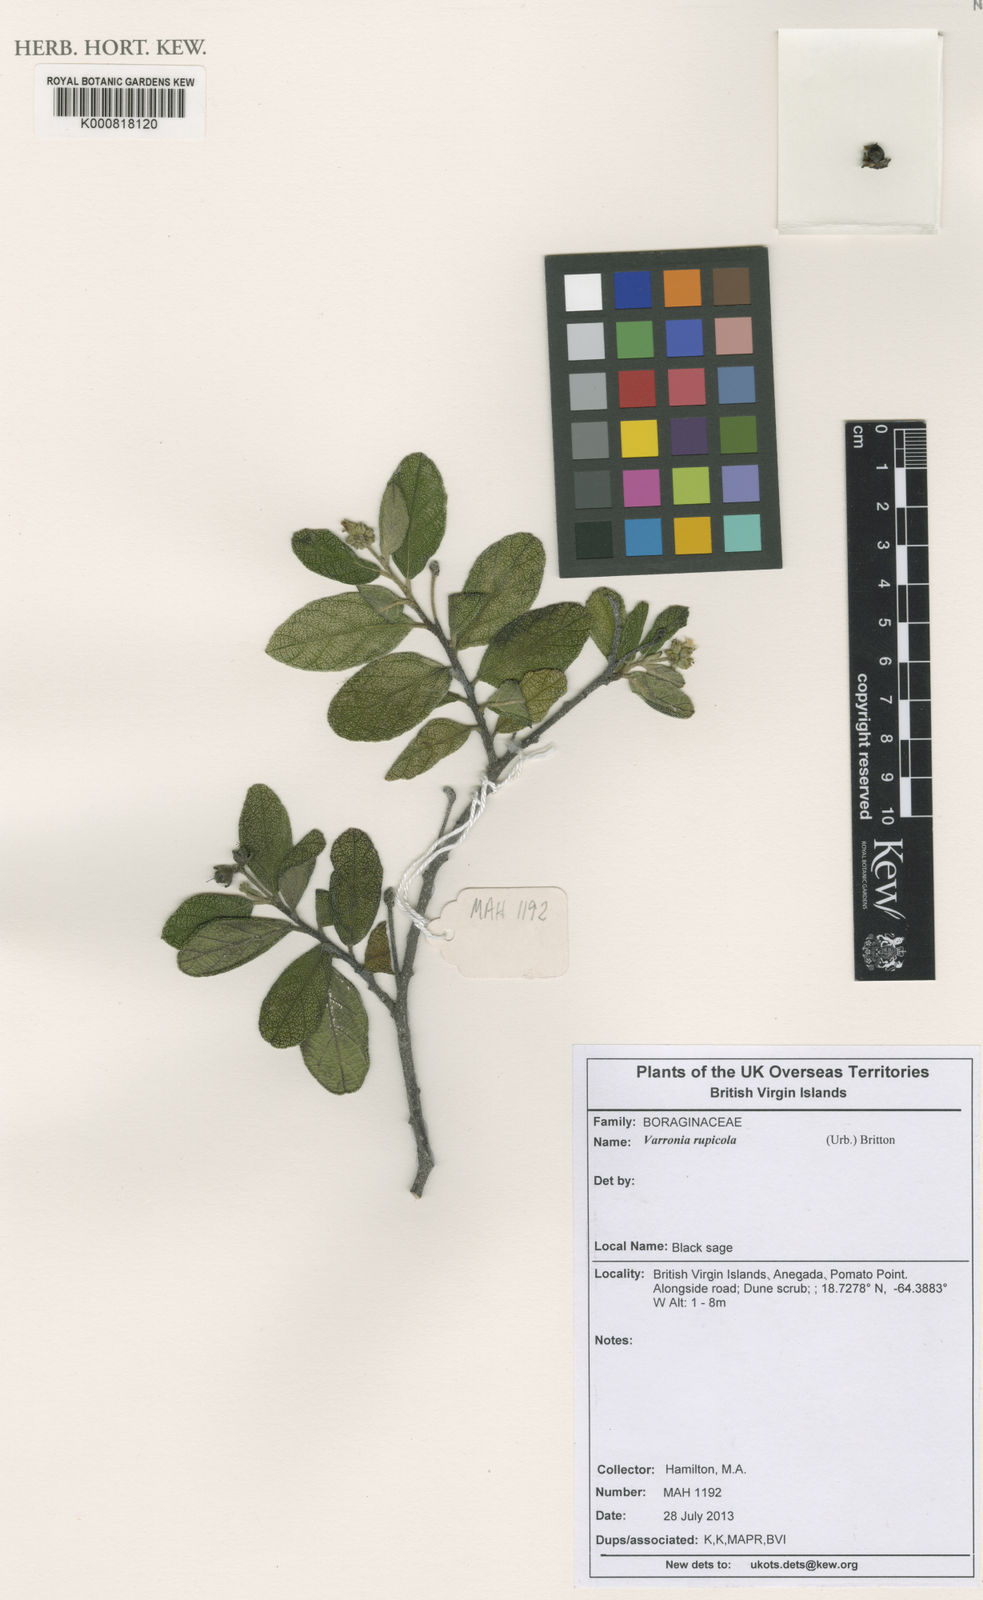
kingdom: Plantae
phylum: Tracheophyta
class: Magnoliopsida
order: Boraginales
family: Cordiaceae
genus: Varronia
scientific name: Varronia rupicola
